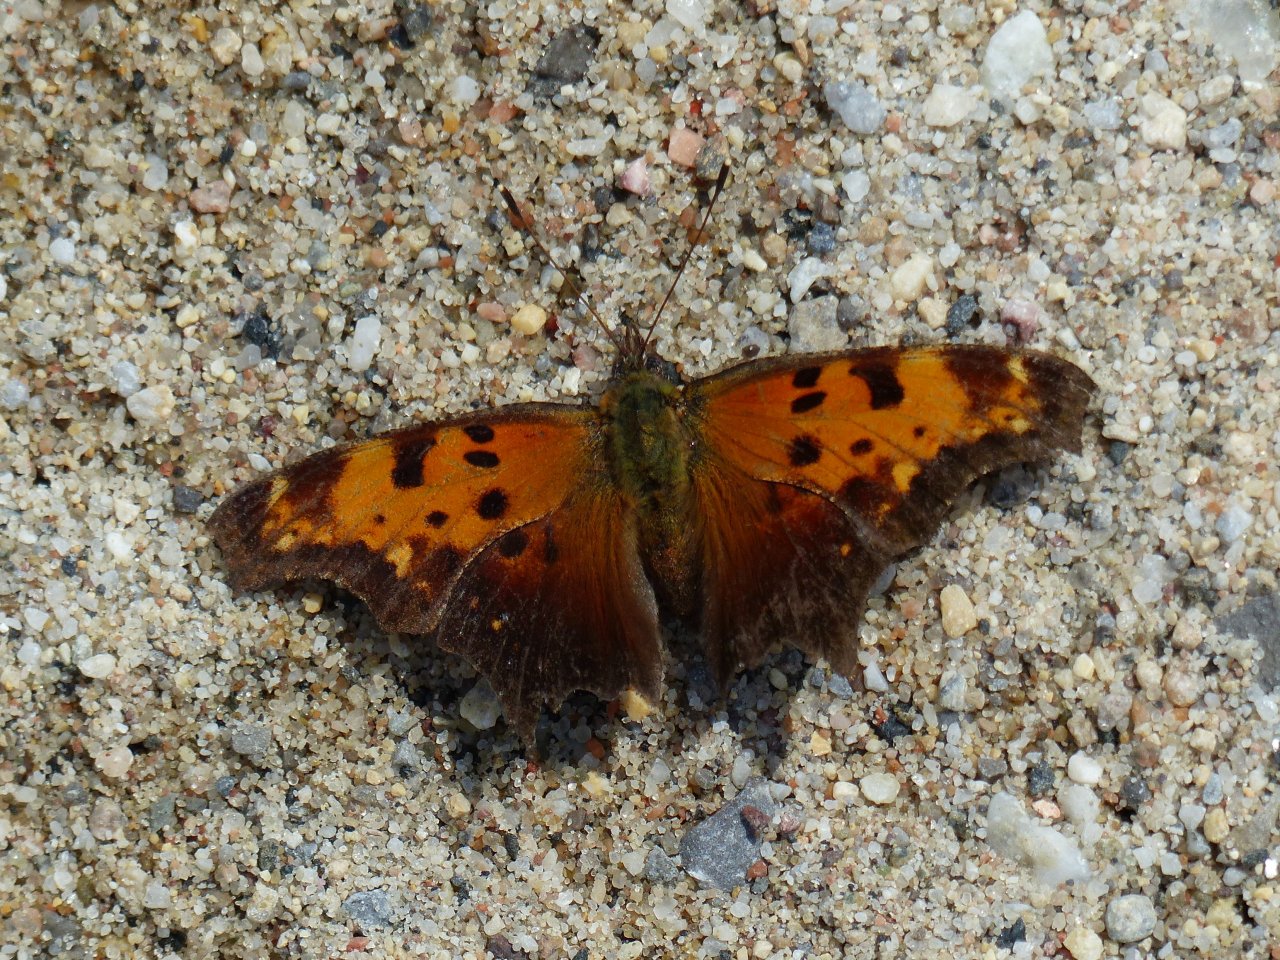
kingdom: Animalia
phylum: Arthropoda
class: Insecta
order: Lepidoptera
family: Nymphalidae
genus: Polygonia
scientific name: Polygonia progne
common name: Gray Comma
